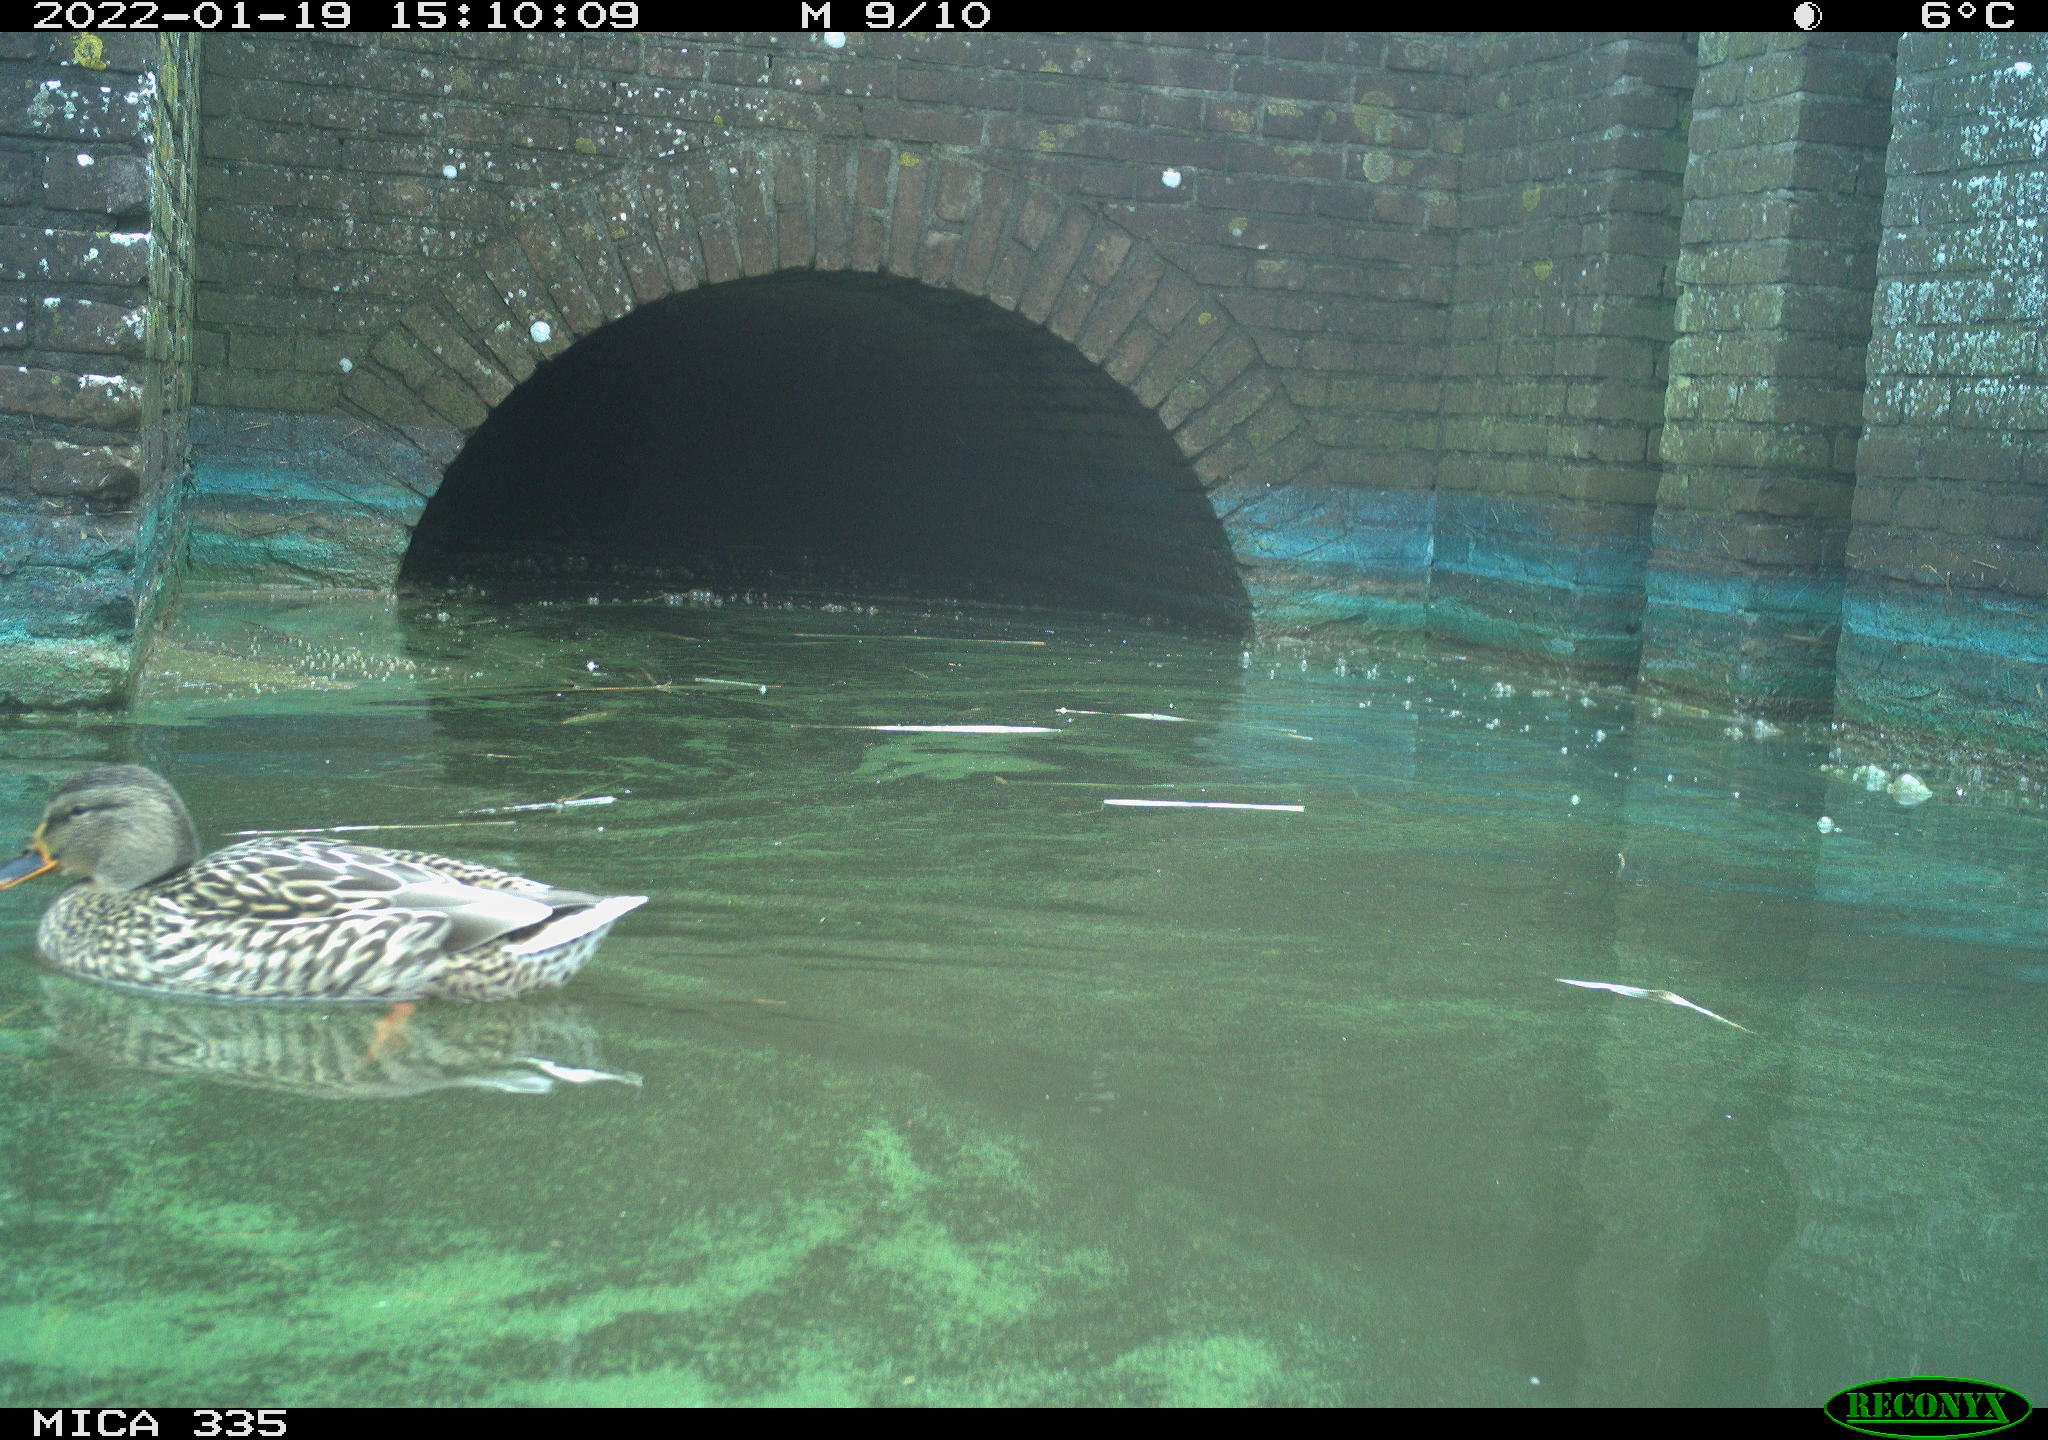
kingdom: Animalia
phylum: Chordata
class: Aves
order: Anseriformes
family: Anatidae
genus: Anas
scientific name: Anas platyrhynchos
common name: Mallard
